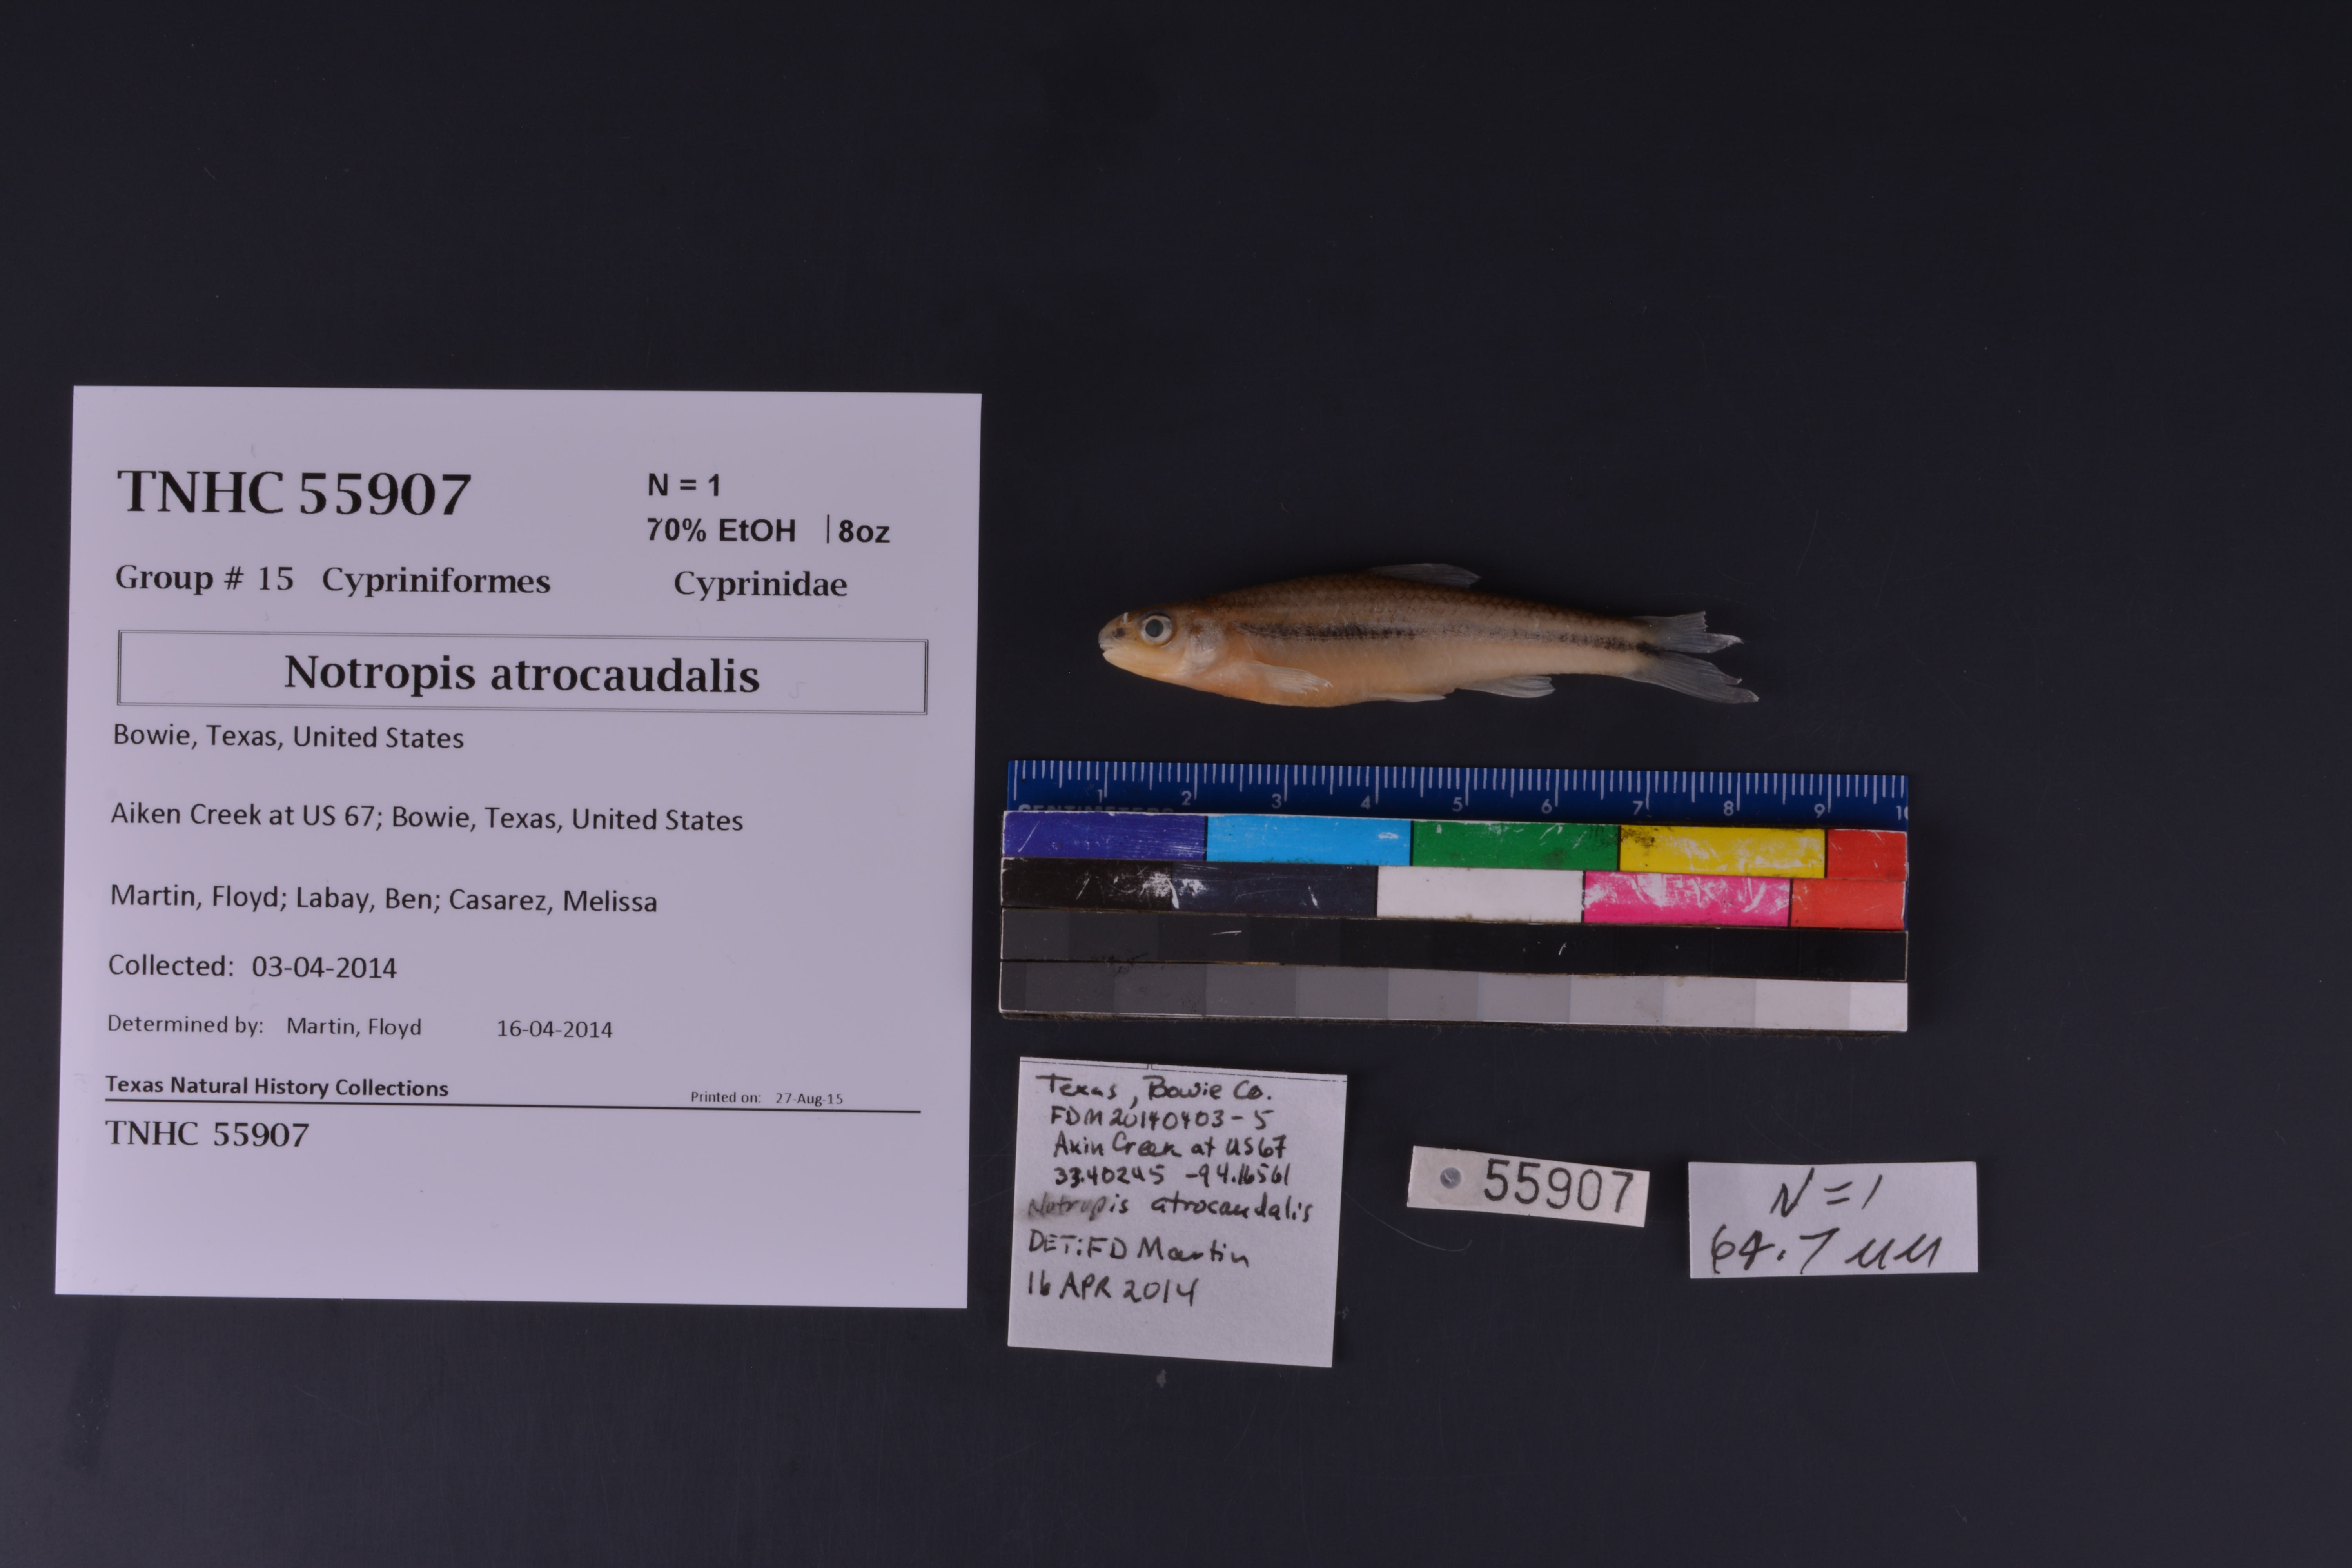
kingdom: Animalia
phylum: Chordata
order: Cypriniformes
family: Cyprinidae
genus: Notropis
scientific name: Notropis atrocaudalis
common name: Blackspot shiner
